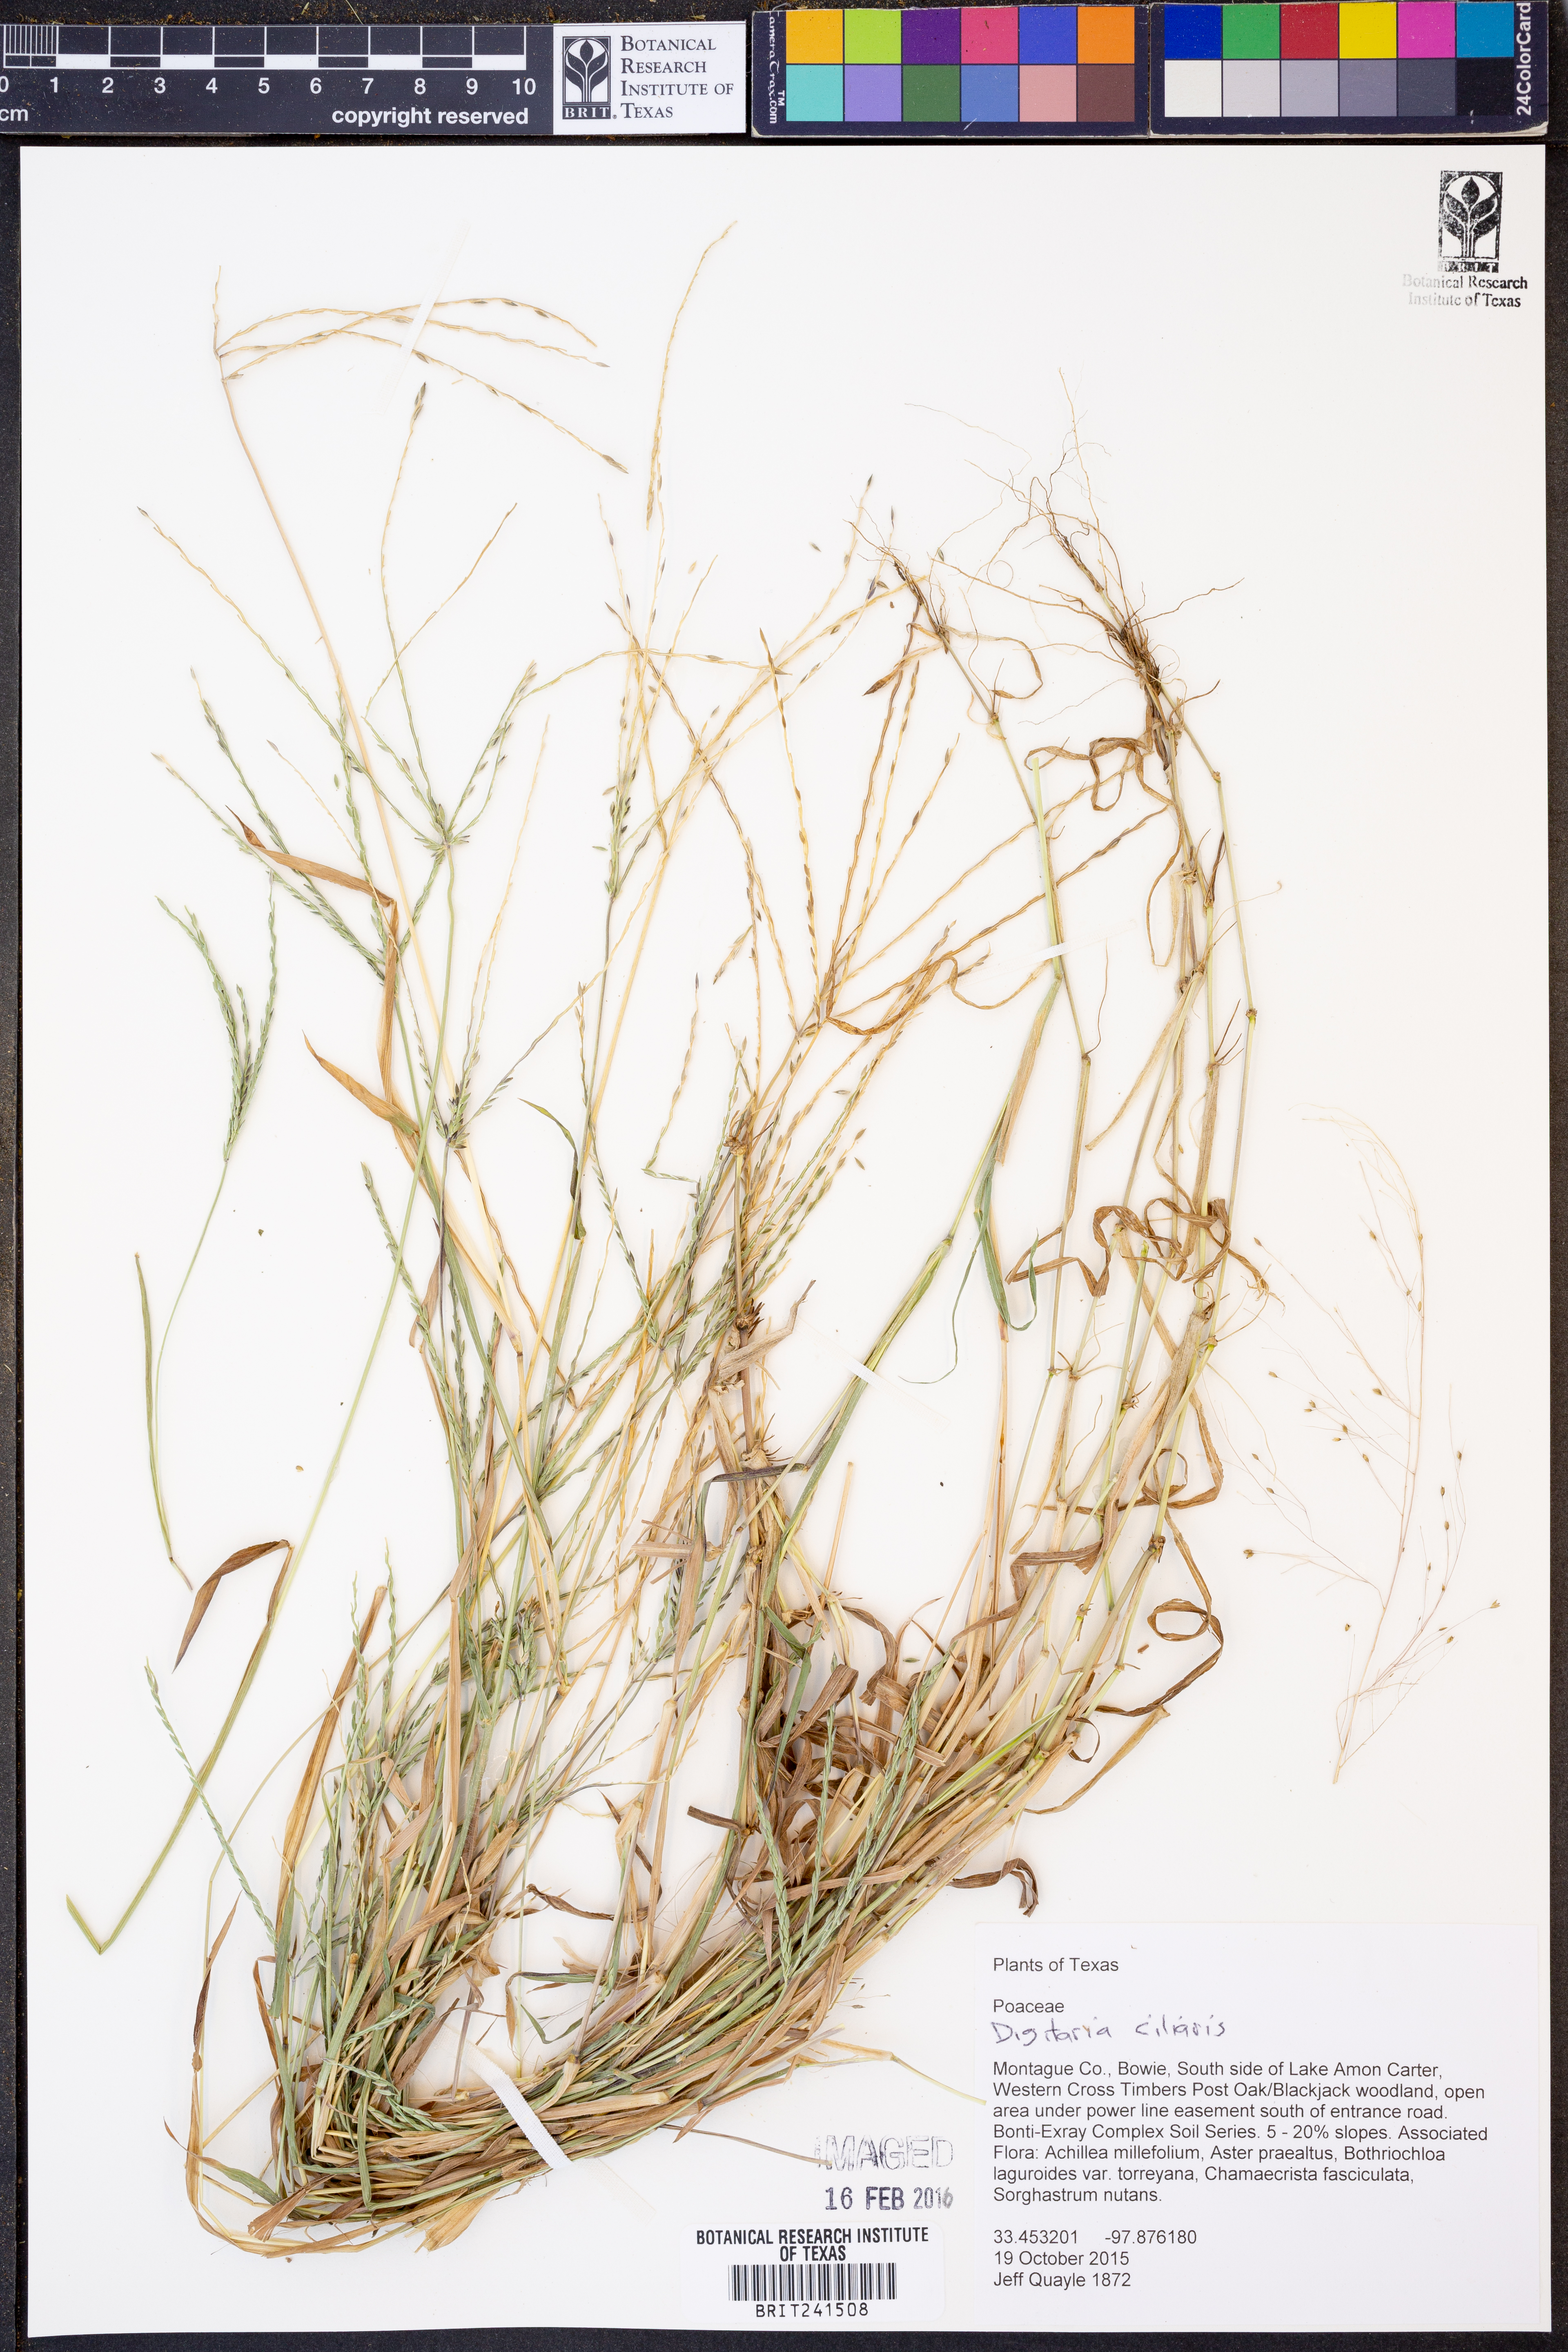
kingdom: Plantae
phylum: Tracheophyta
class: Liliopsida
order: Poales
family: Poaceae
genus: Digitaria
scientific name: Digitaria ciliaris
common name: Tropical finger-grass
